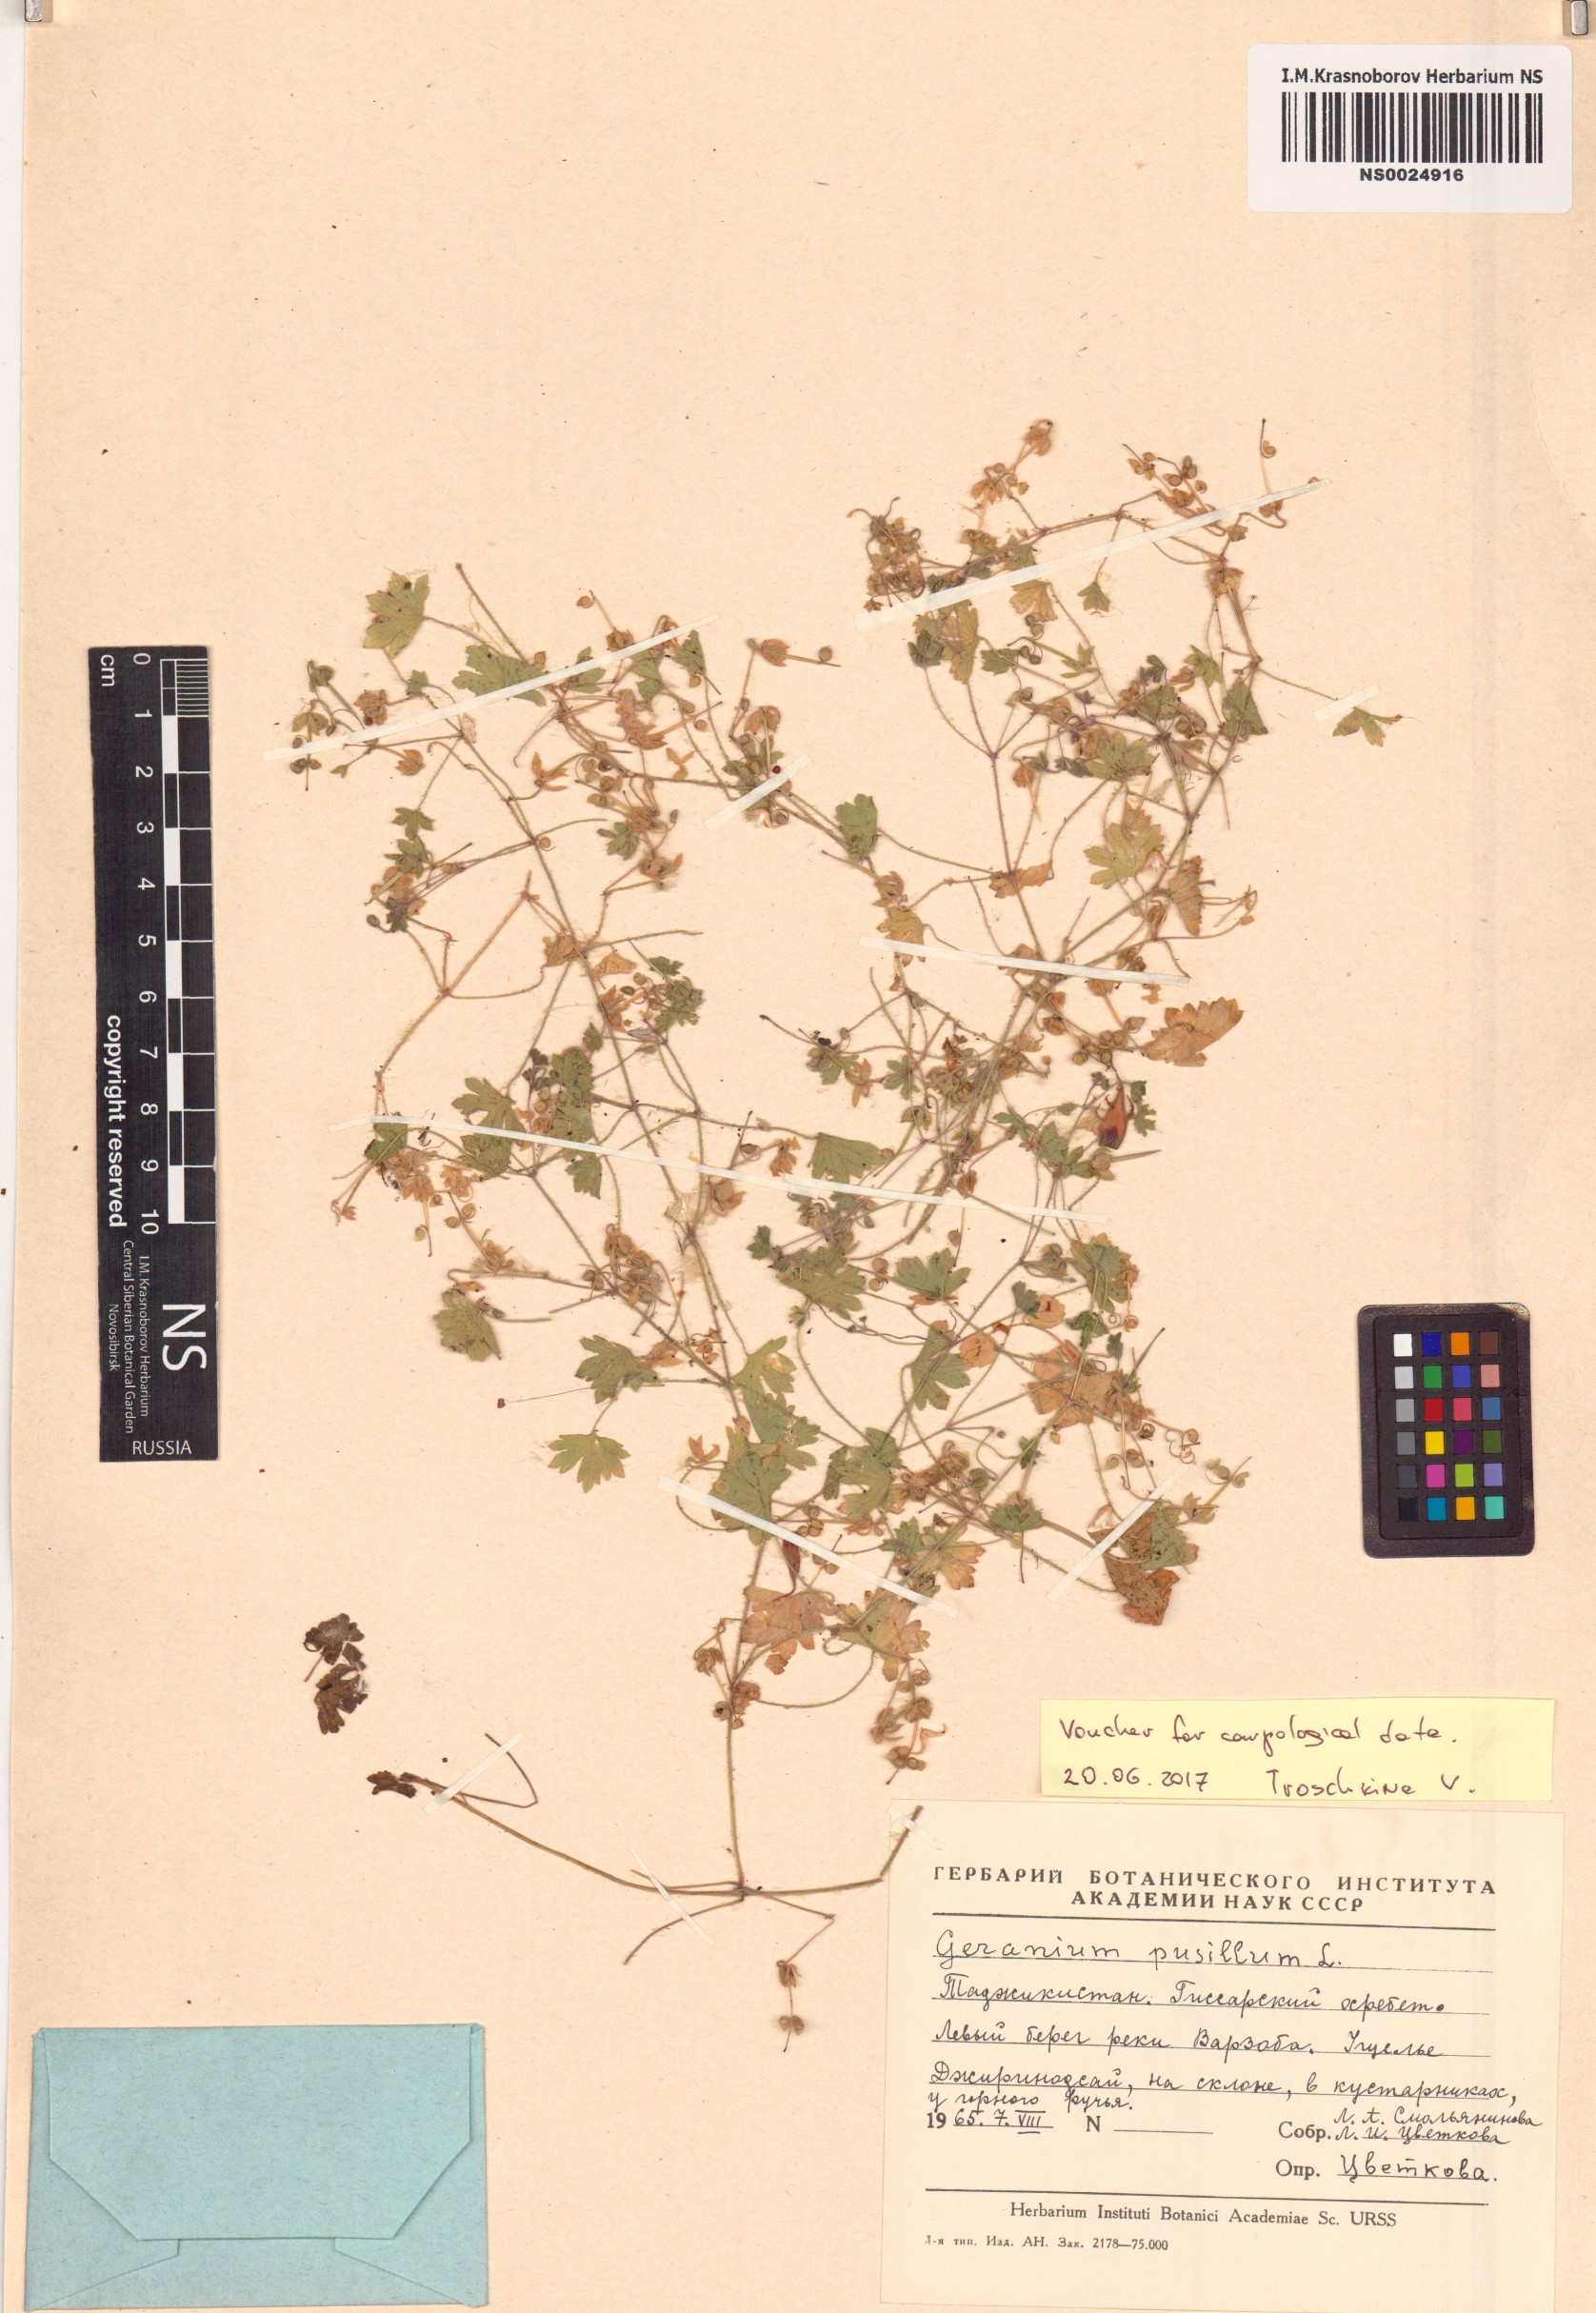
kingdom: Plantae
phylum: Tracheophyta
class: Magnoliopsida
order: Geraniales
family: Geraniaceae
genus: Geranium
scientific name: Geranium pusillum
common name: Small geranium
